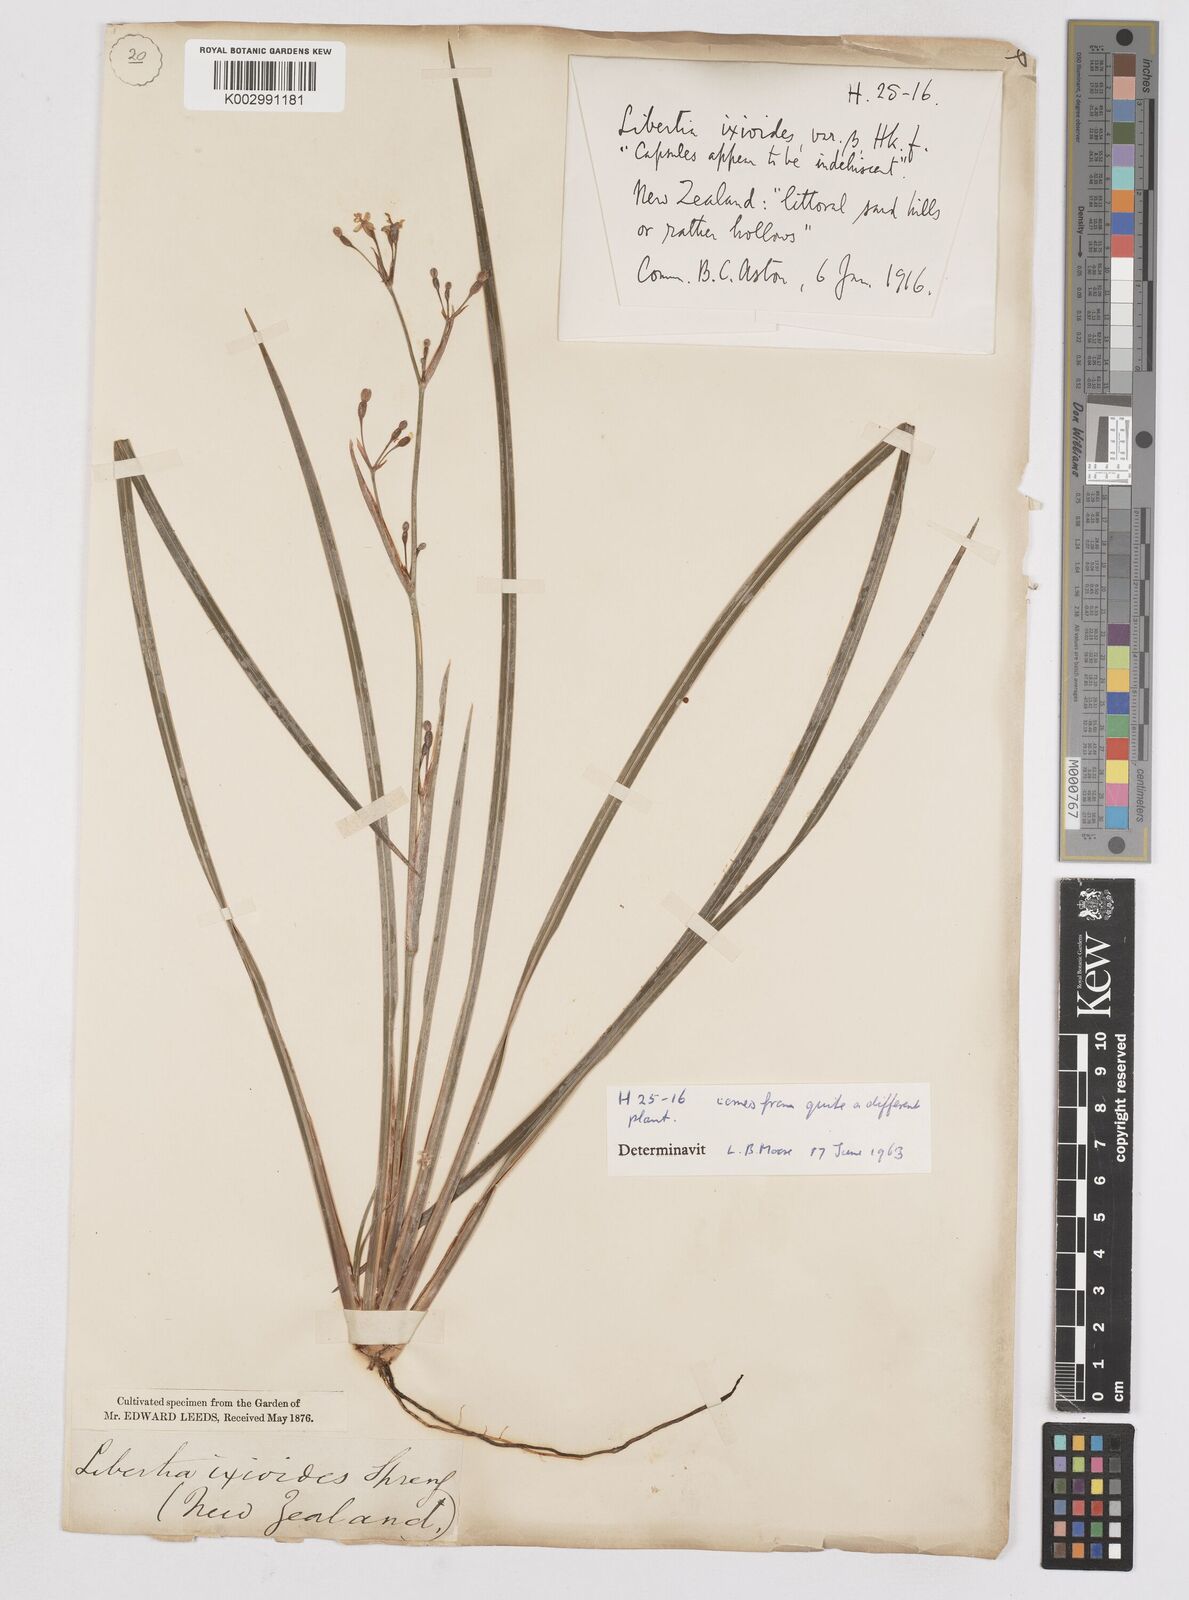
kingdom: Plantae
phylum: Tracheophyta
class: Liliopsida
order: Asparagales
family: Iridaceae
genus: Libertia
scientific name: Libertia ixioides
